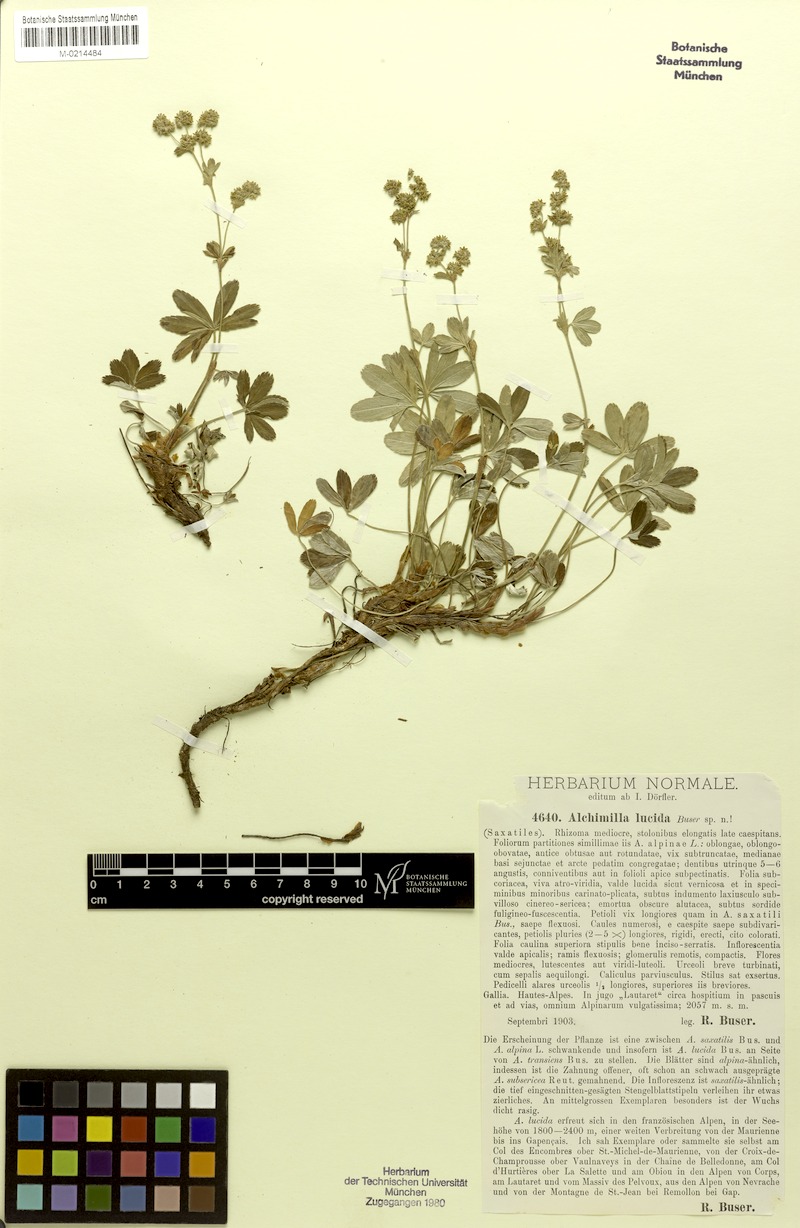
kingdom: Plantae
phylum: Tracheophyta
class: Magnoliopsida
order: Rosales
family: Rosaceae
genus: Alchemilla
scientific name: Alchemilla lucida
